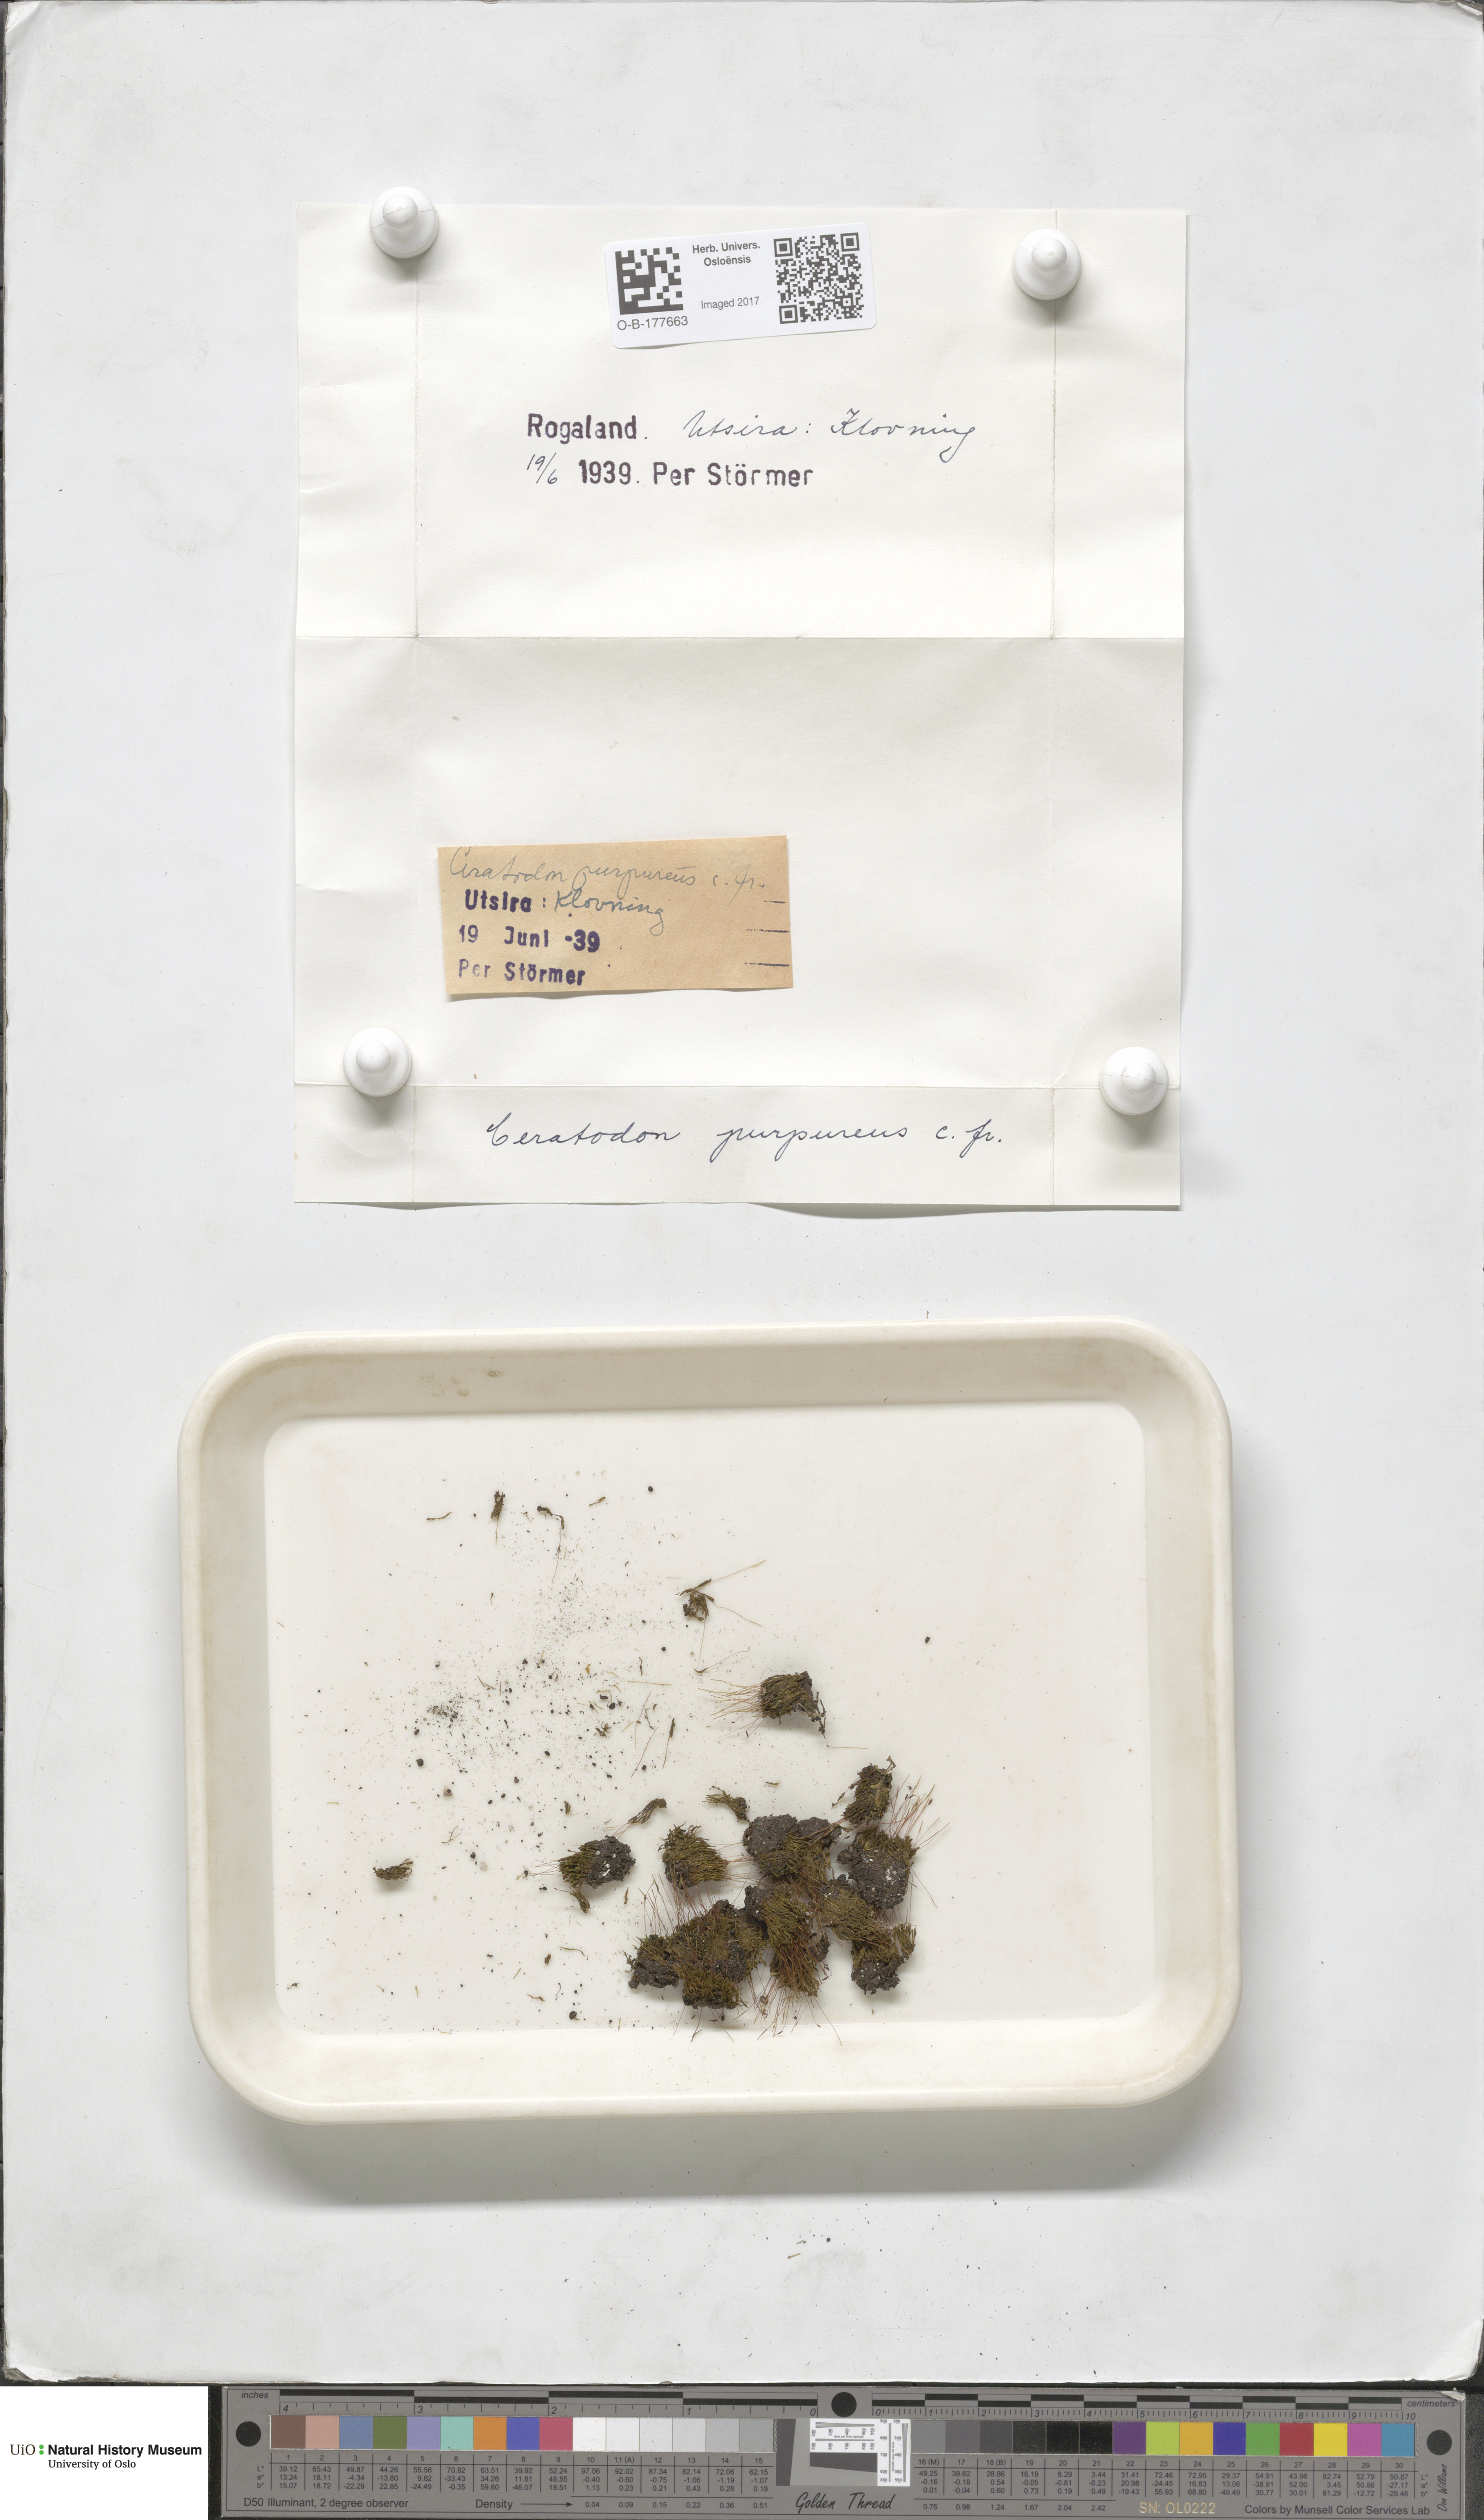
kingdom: Plantae
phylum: Bryophyta
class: Bryopsida
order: Dicranales
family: Ditrichaceae
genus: Ceratodon
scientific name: Ceratodon purpureus
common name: Redshank
